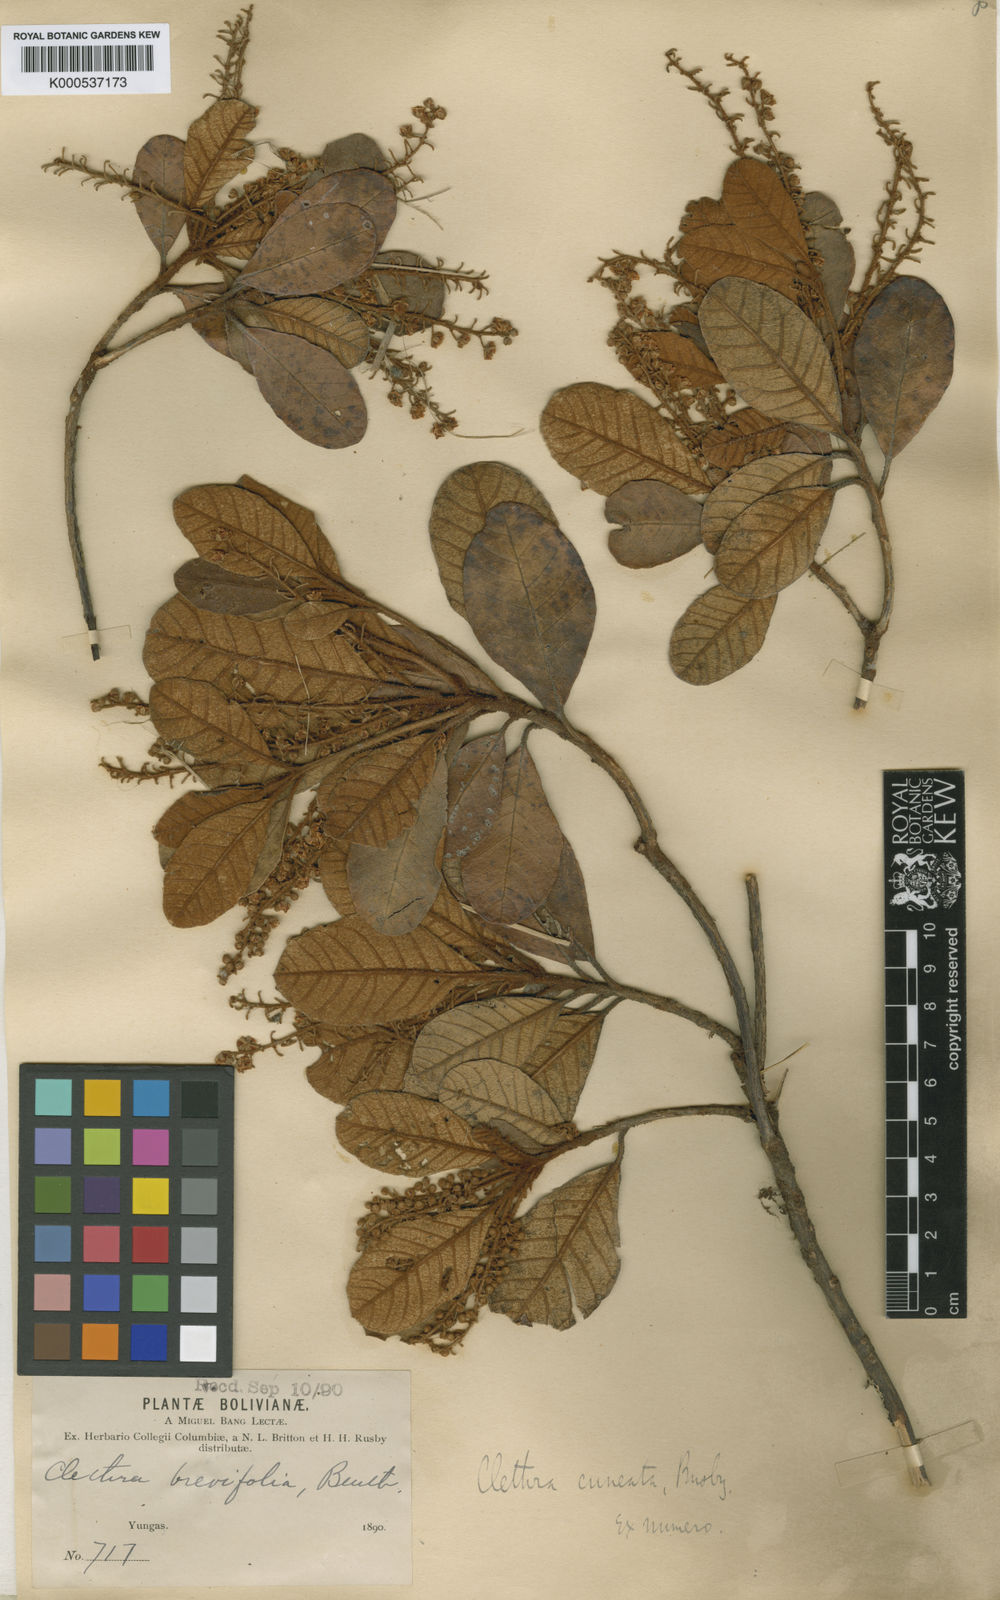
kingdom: Plantae
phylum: Tracheophyta
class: Magnoliopsida
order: Ericales
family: Clethraceae
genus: Clethra
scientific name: Clethra cuneata
